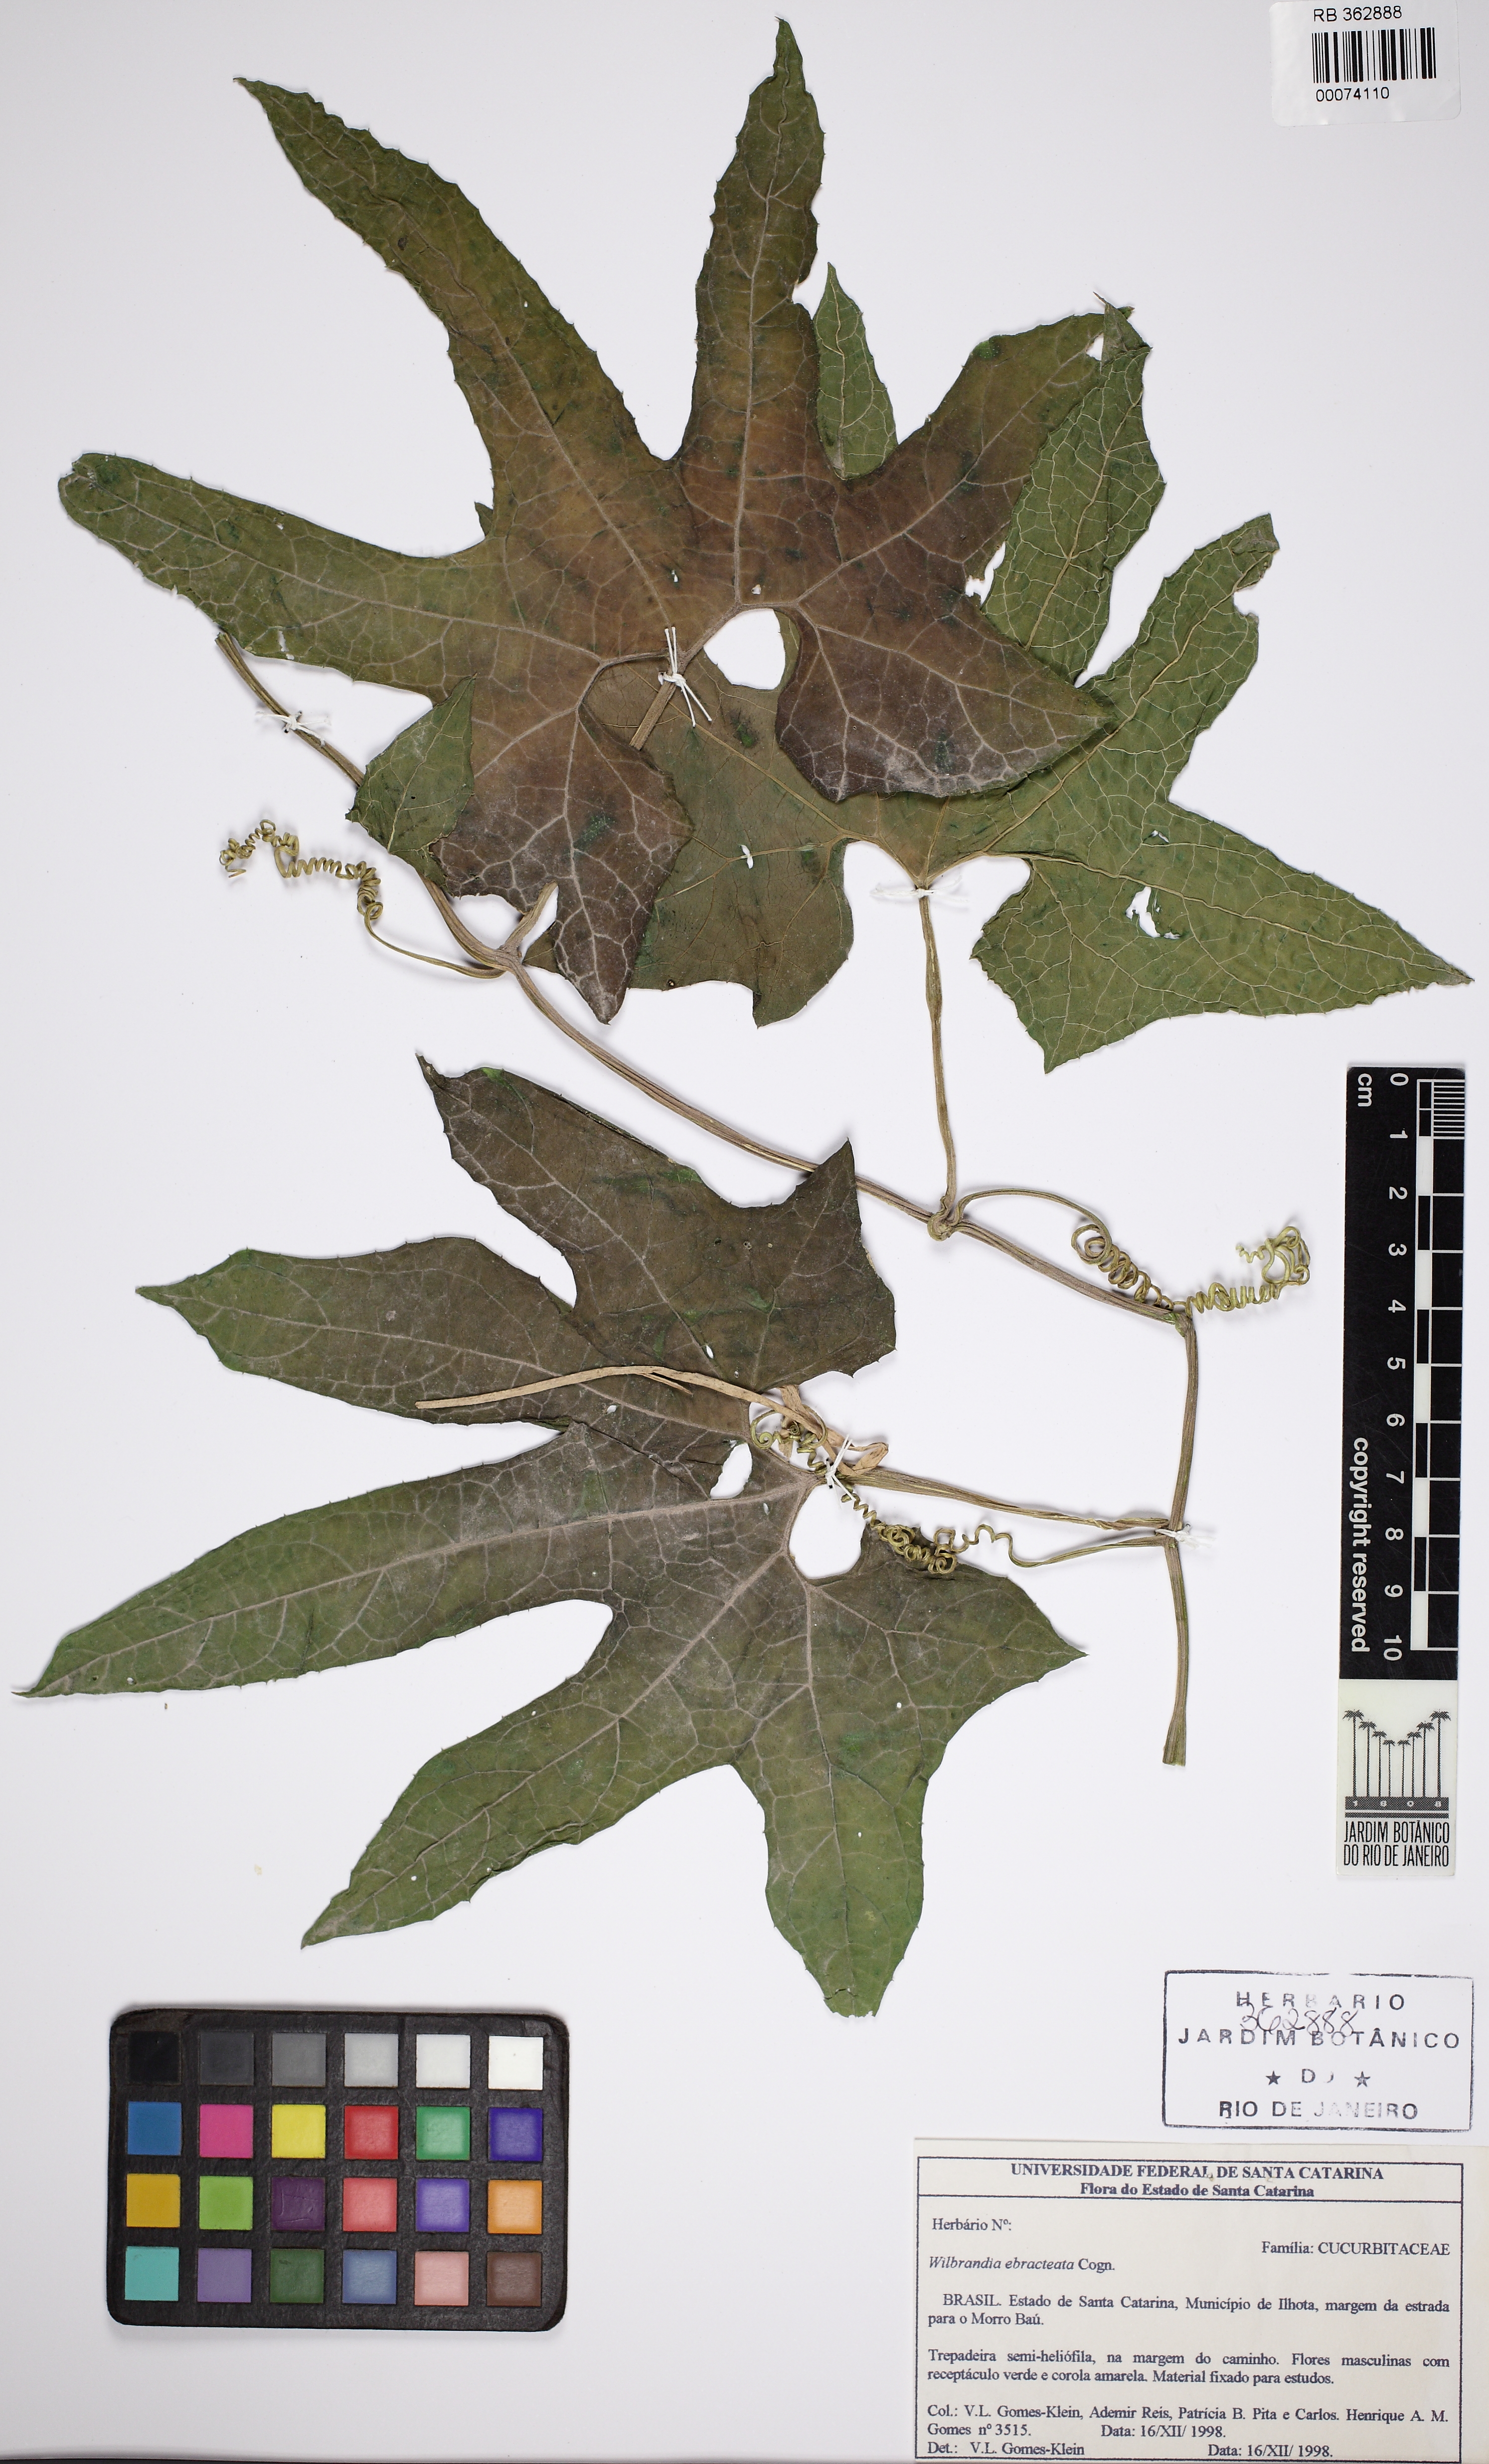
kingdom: Plantae
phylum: Tracheophyta
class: Magnoliopsida
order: Cucurbitales
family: Cucurbitaceae
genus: Wilbrandia
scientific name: Wilbrandia ebracteata
